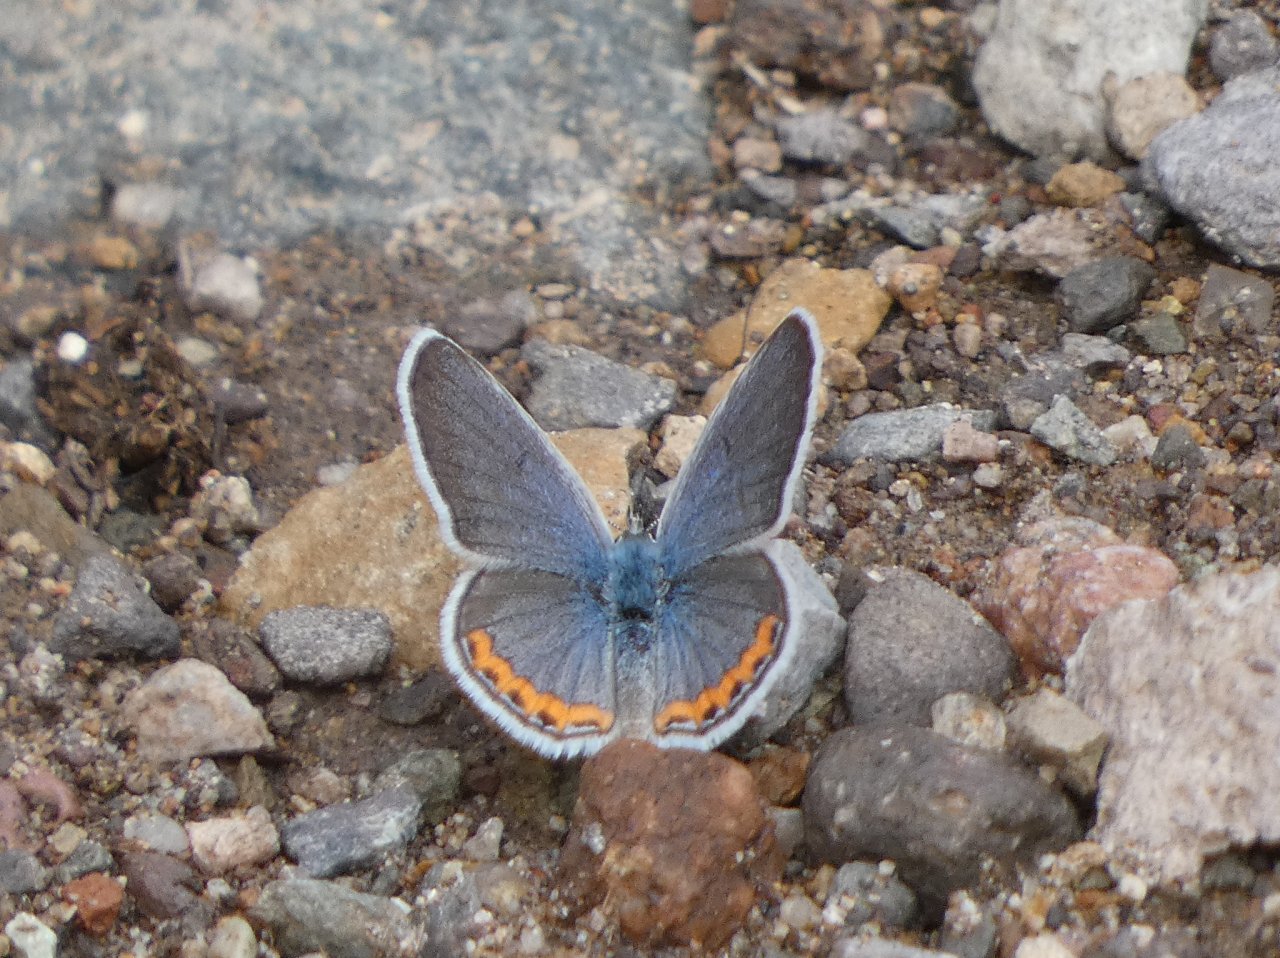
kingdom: Animalia
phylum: Arthropoda
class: Insecta
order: Lepidoptera
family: Lycaenidae
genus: Plebejus
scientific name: Plebejus lupini
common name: Lupine Blue
